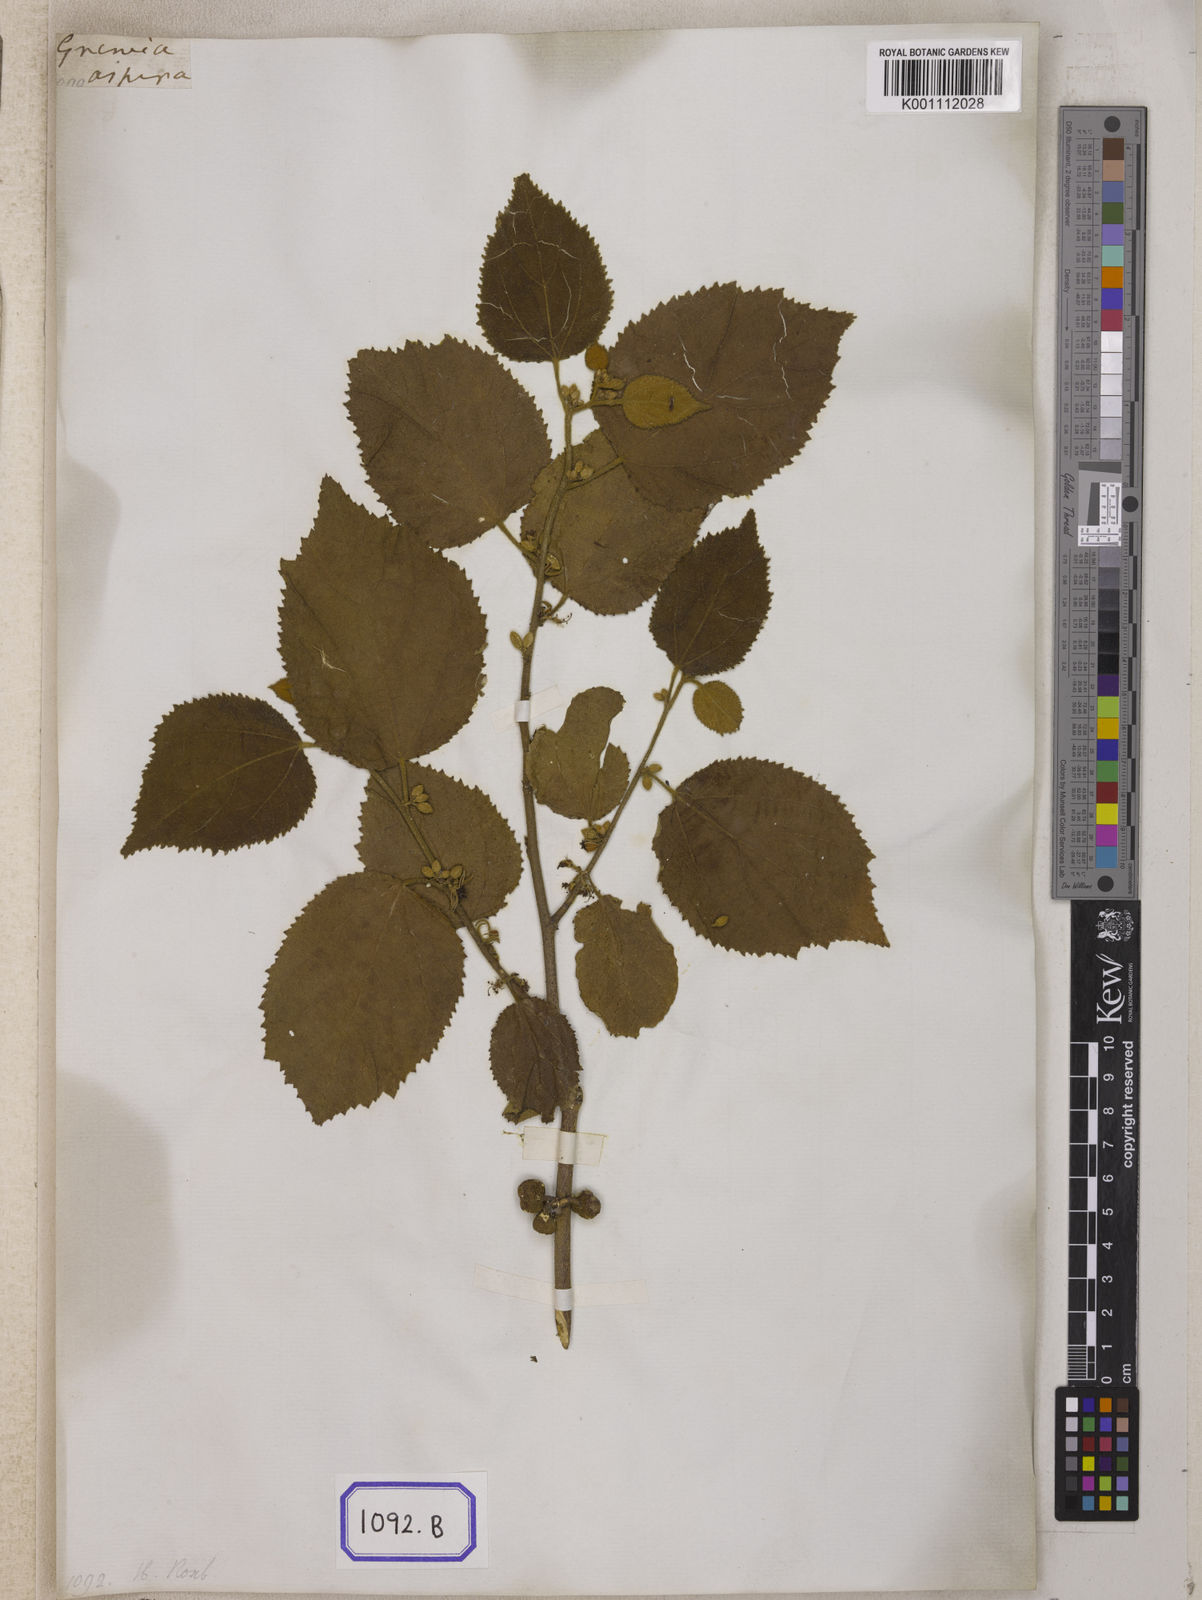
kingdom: Plantae
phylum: Tracheophyta
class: Magnoliopsida
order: Malvales
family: Malvaceae
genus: Grewia
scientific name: Grewia abutilifolia
